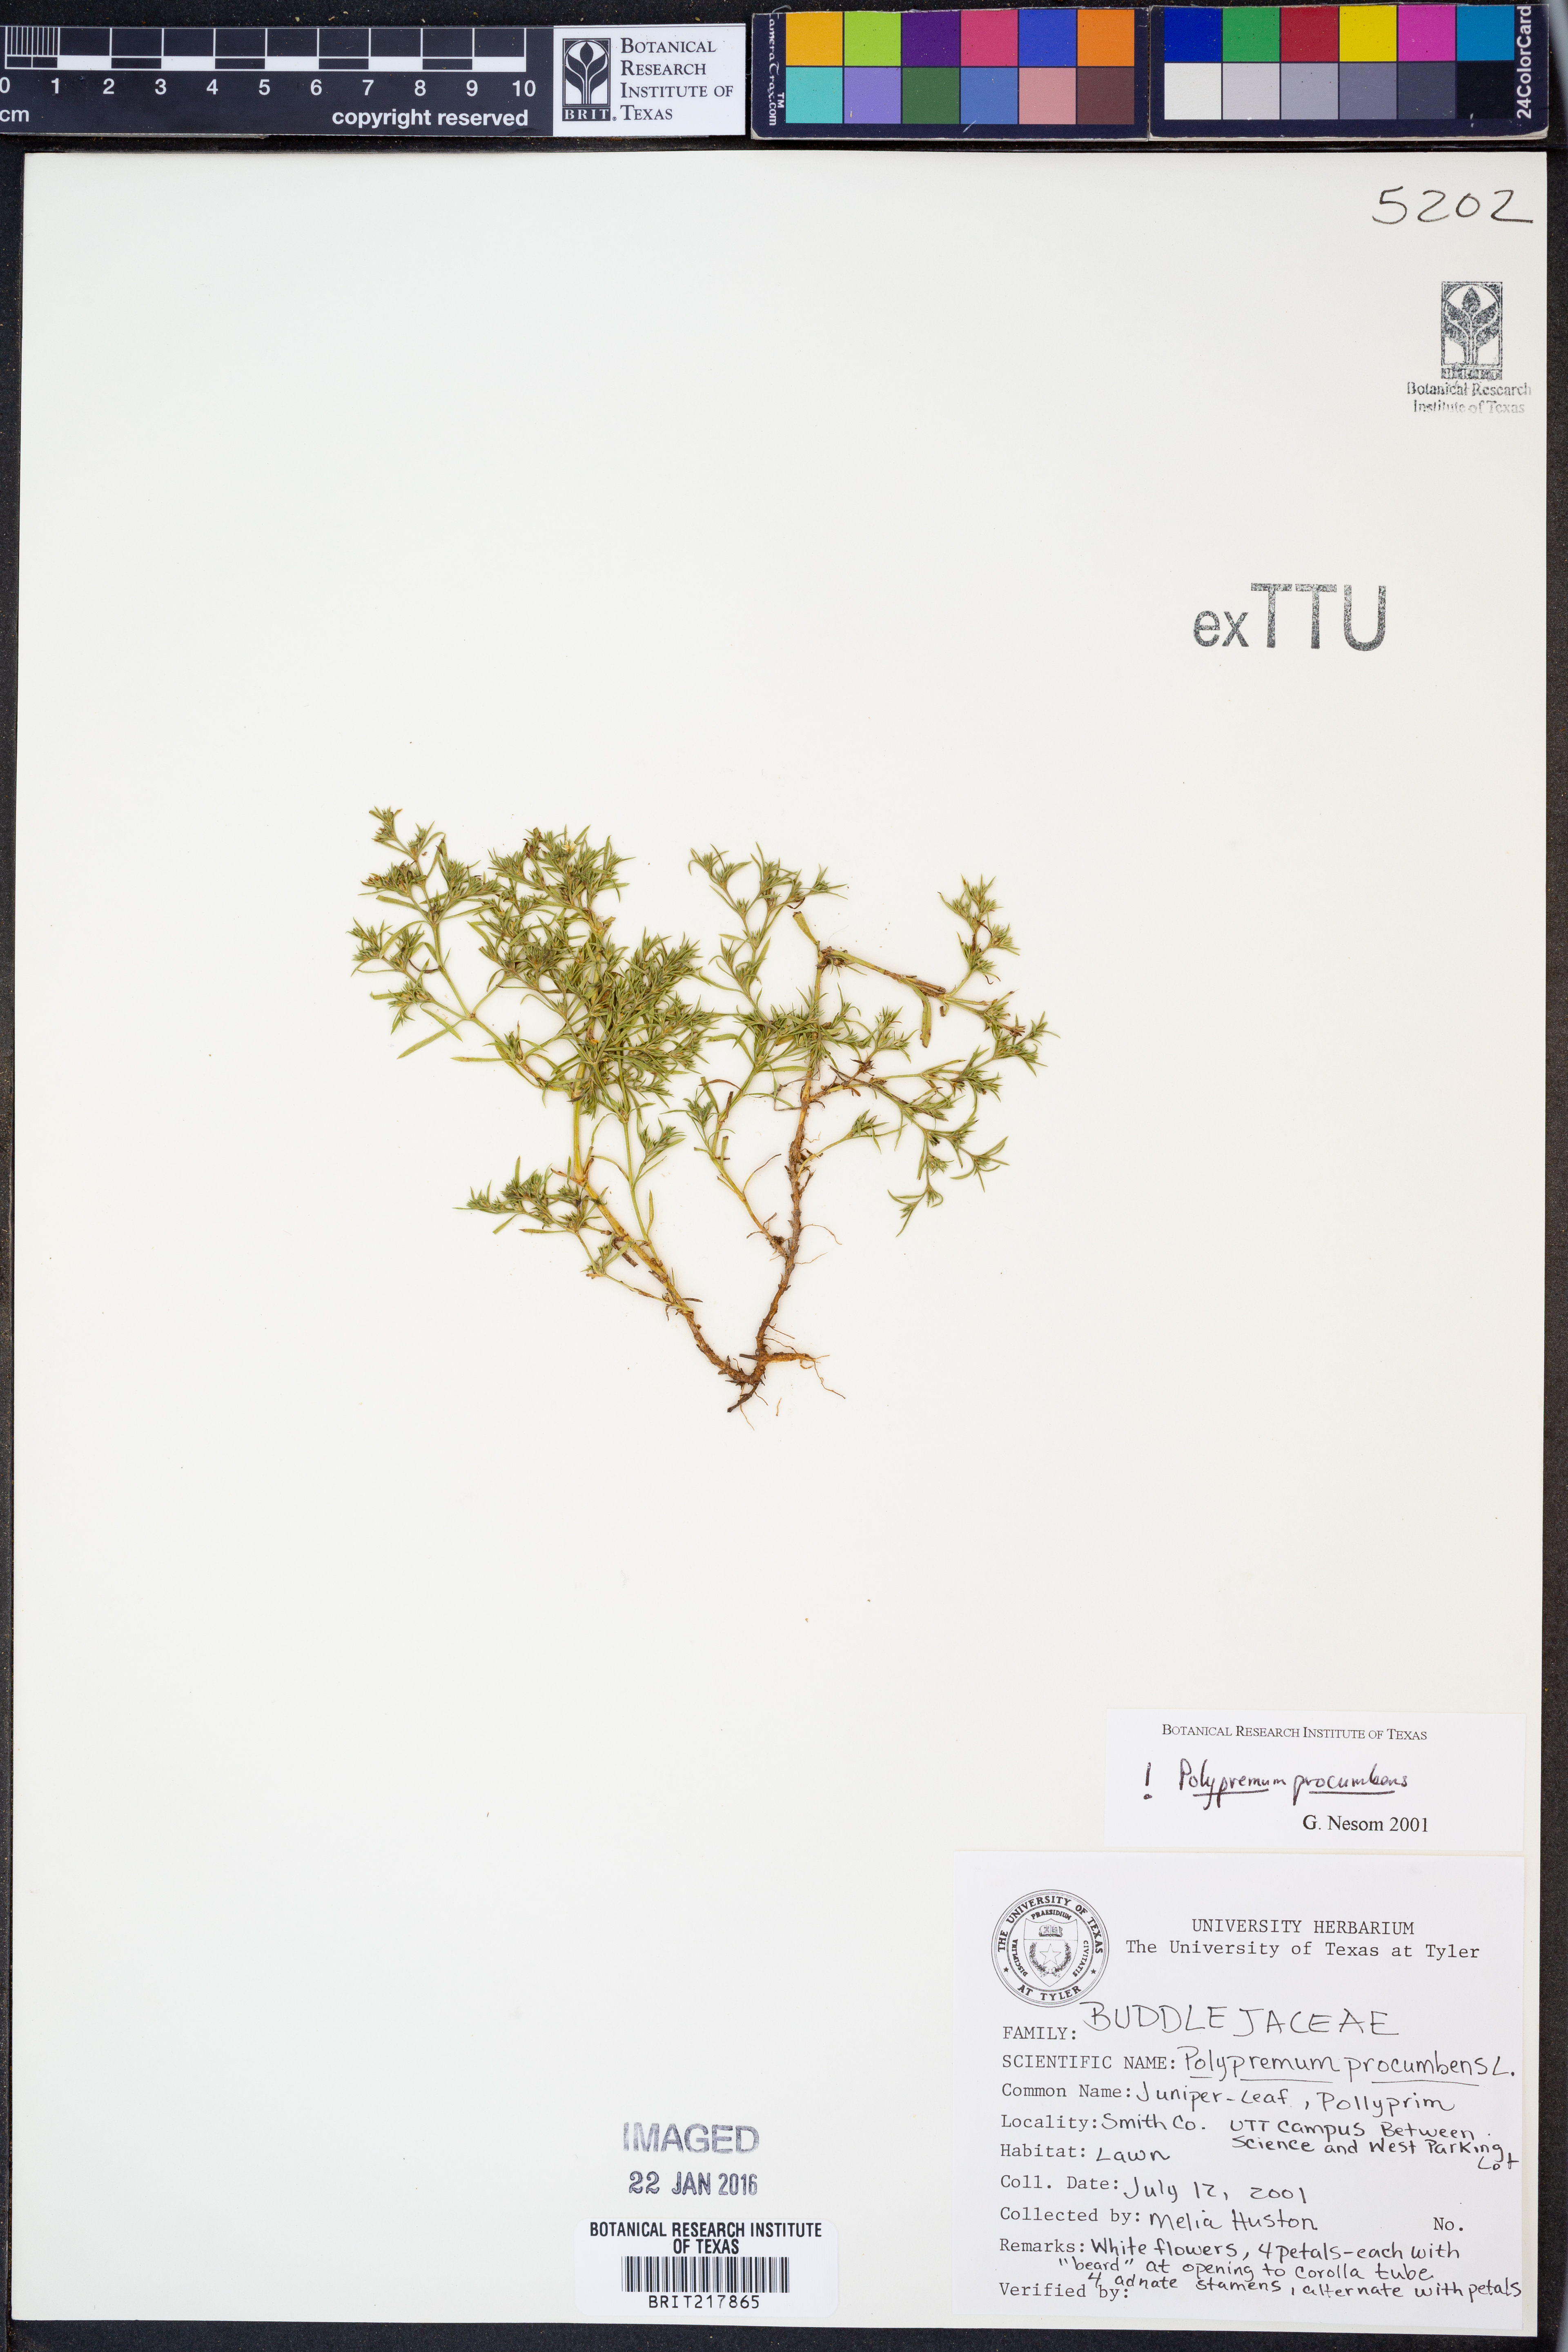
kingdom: Plantae
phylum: Tracheophyta
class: Magnoliopsida
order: Lamiales
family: Tetrachondraceae
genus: Polypremum
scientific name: Polypremum procumbens
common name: Juniper-leaf
